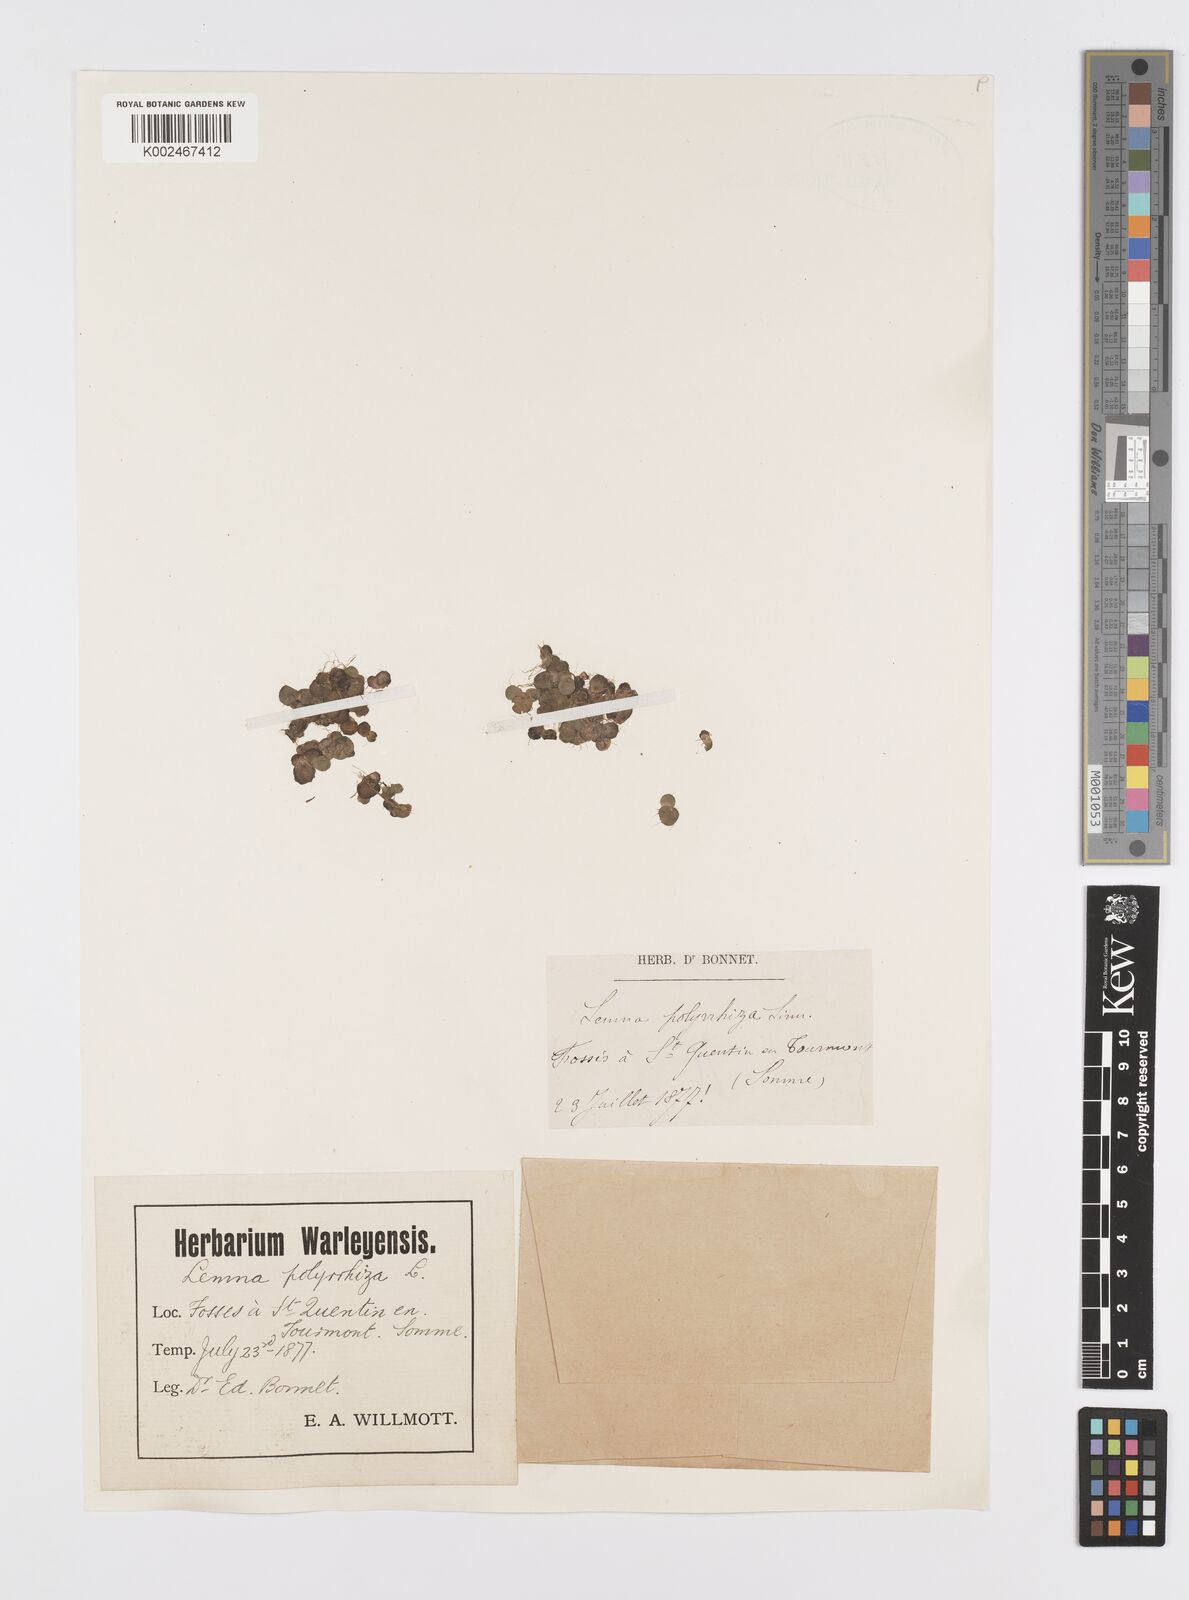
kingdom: Plantae
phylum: Tracheophyta
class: Liliopsida
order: Alismatales
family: Araceae
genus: Spirodela
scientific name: Spirodela polyrhiza
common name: Great duckweed
